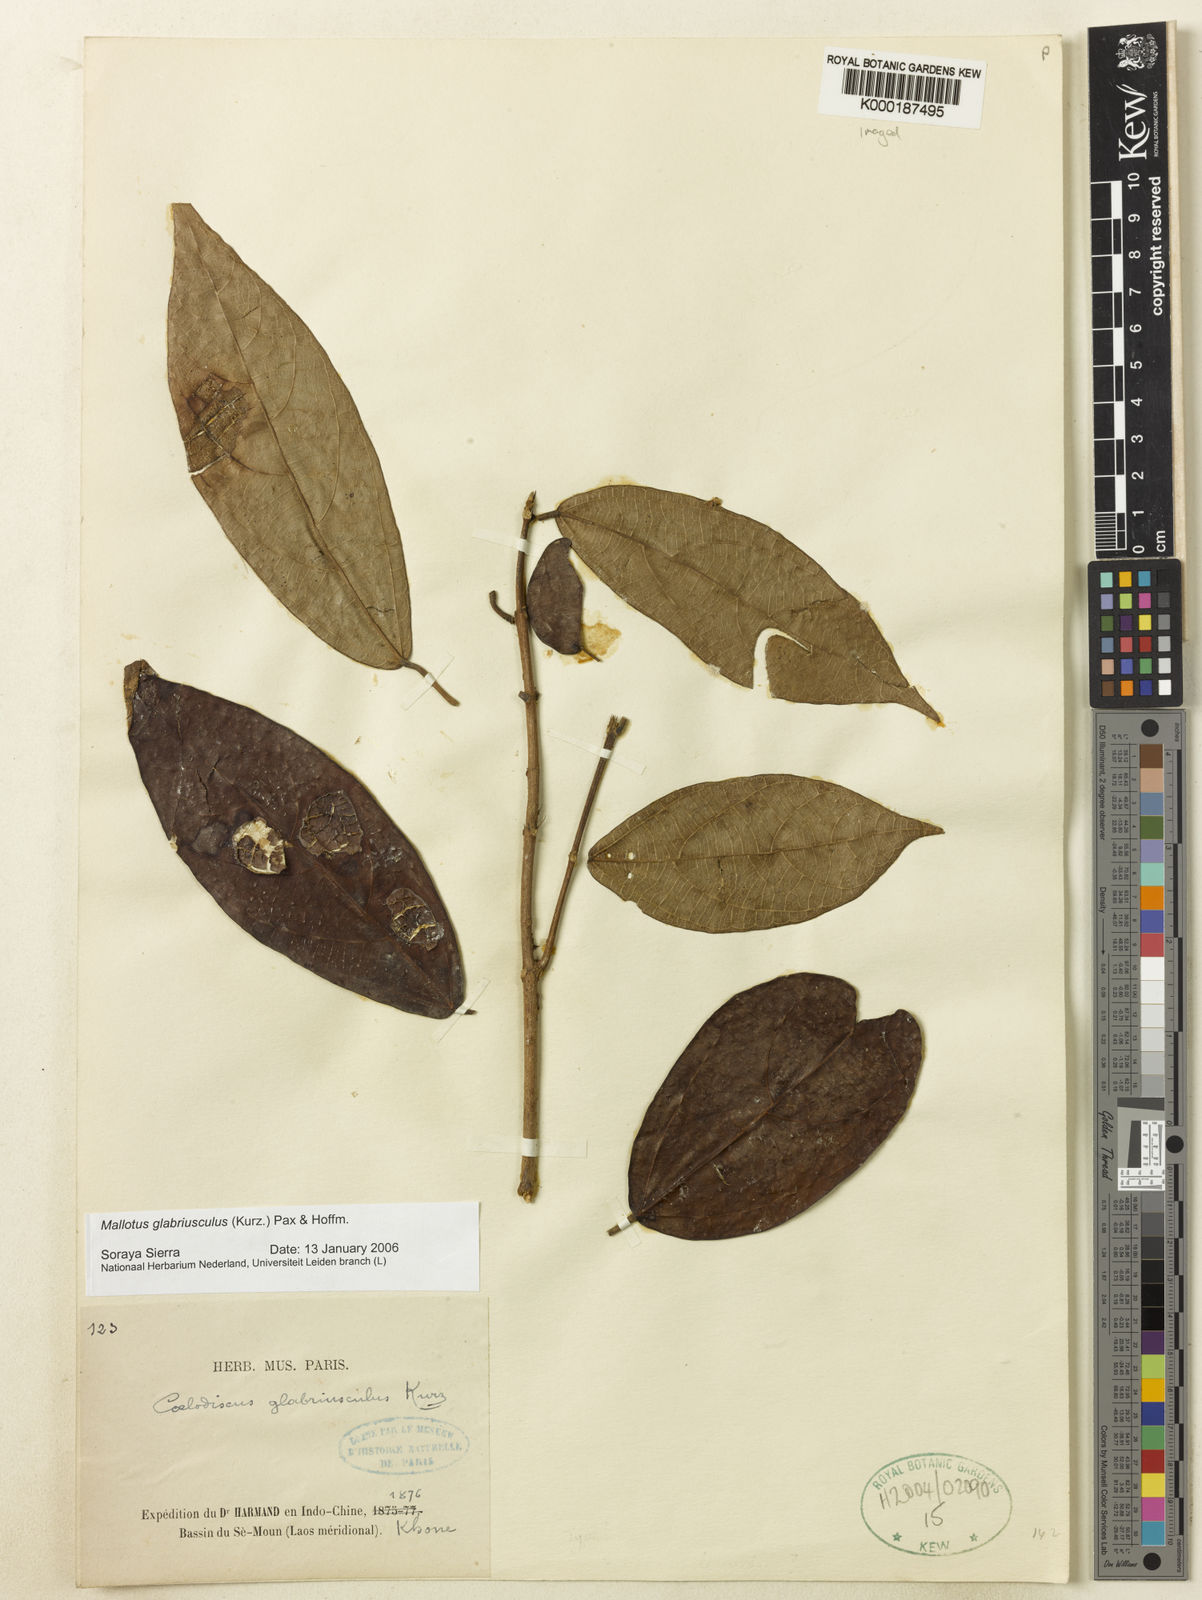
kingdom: Plantae
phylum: Tracheophyta
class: Magnoliopsida
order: Malpighiales
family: Euphorbiaceae
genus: Mallotus
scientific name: Mallotus glabriusculus
